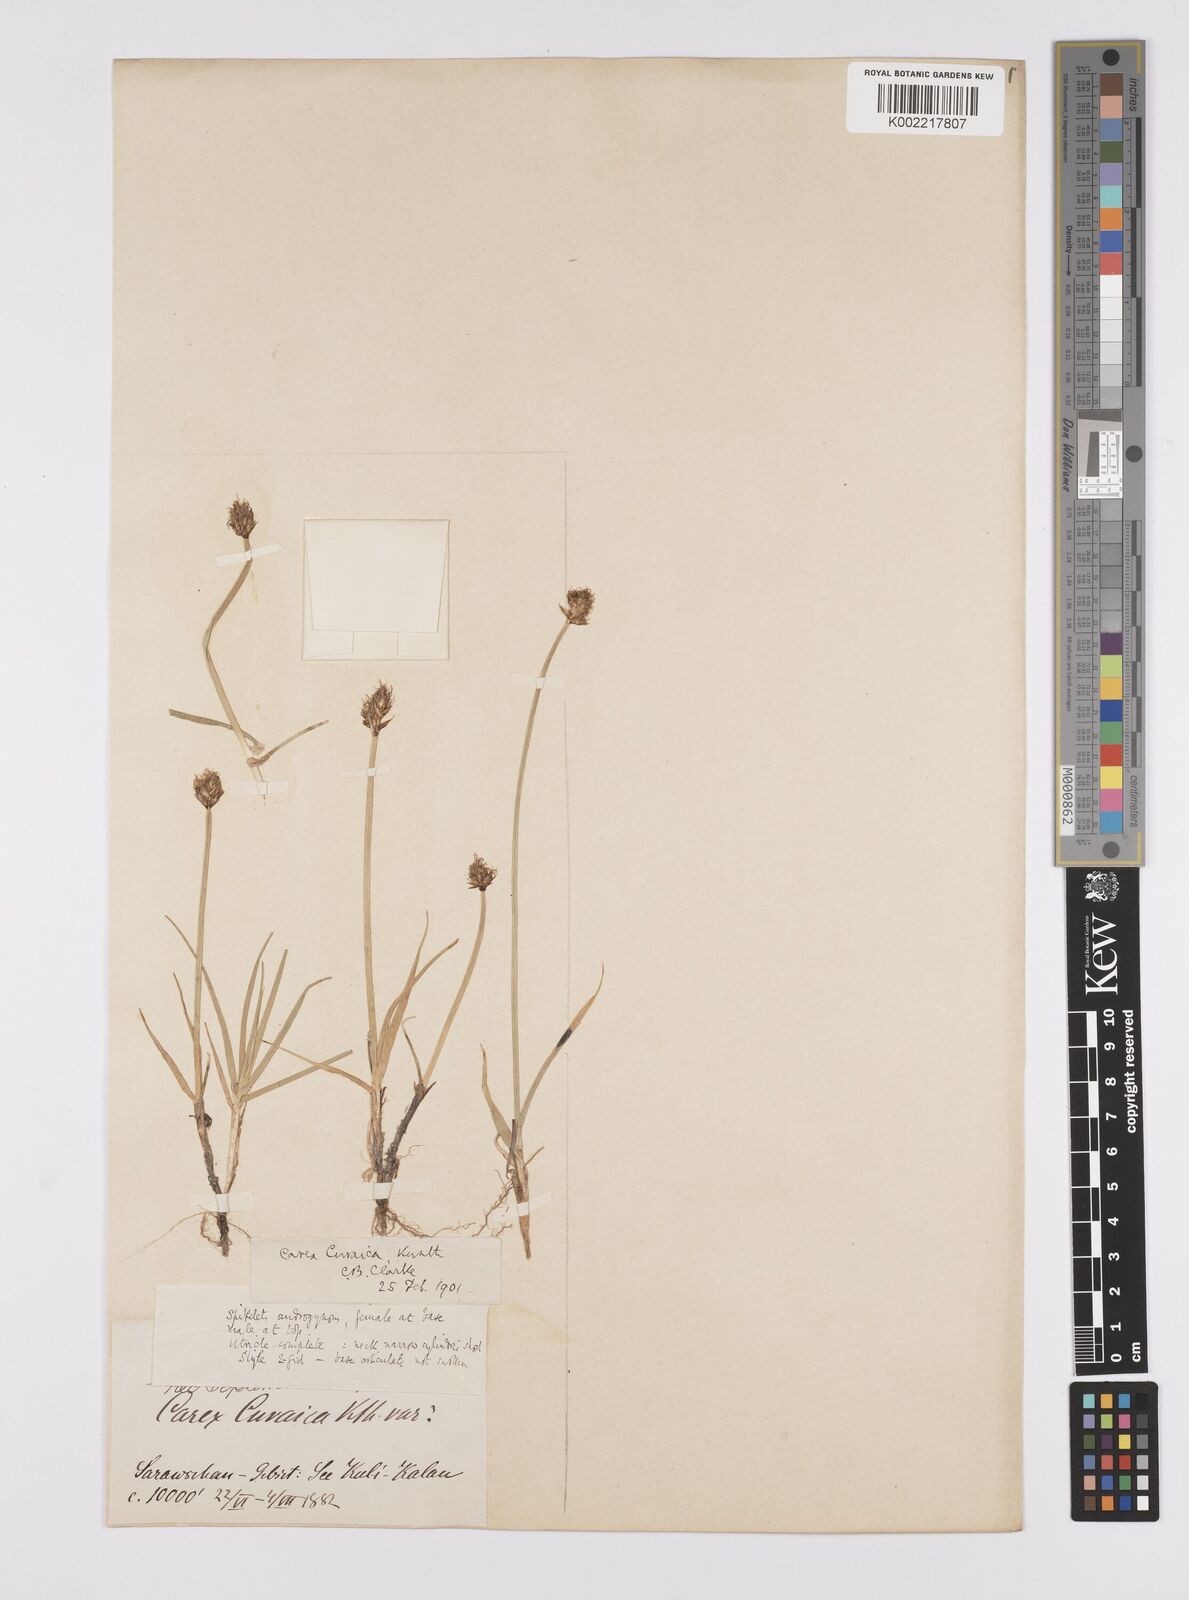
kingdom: Plantae
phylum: Tracheophyta
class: Liliopsida
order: Poales
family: Cyperaceae
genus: Carex
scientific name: Carex curaica
